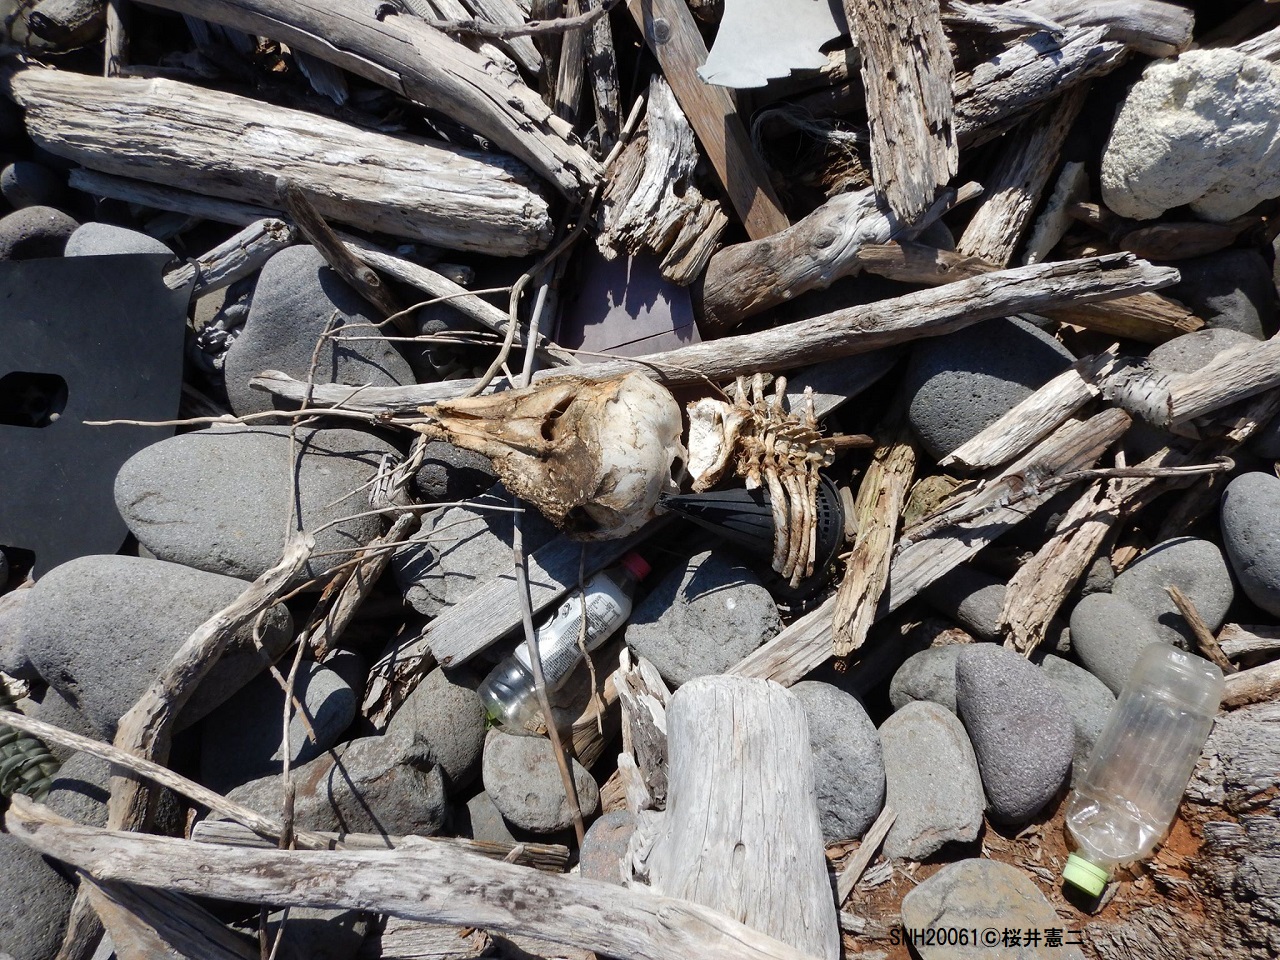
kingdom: Animalia
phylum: Chordata
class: Mammalia
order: Cetacea
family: Phocoenidae
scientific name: Phocoenidae
